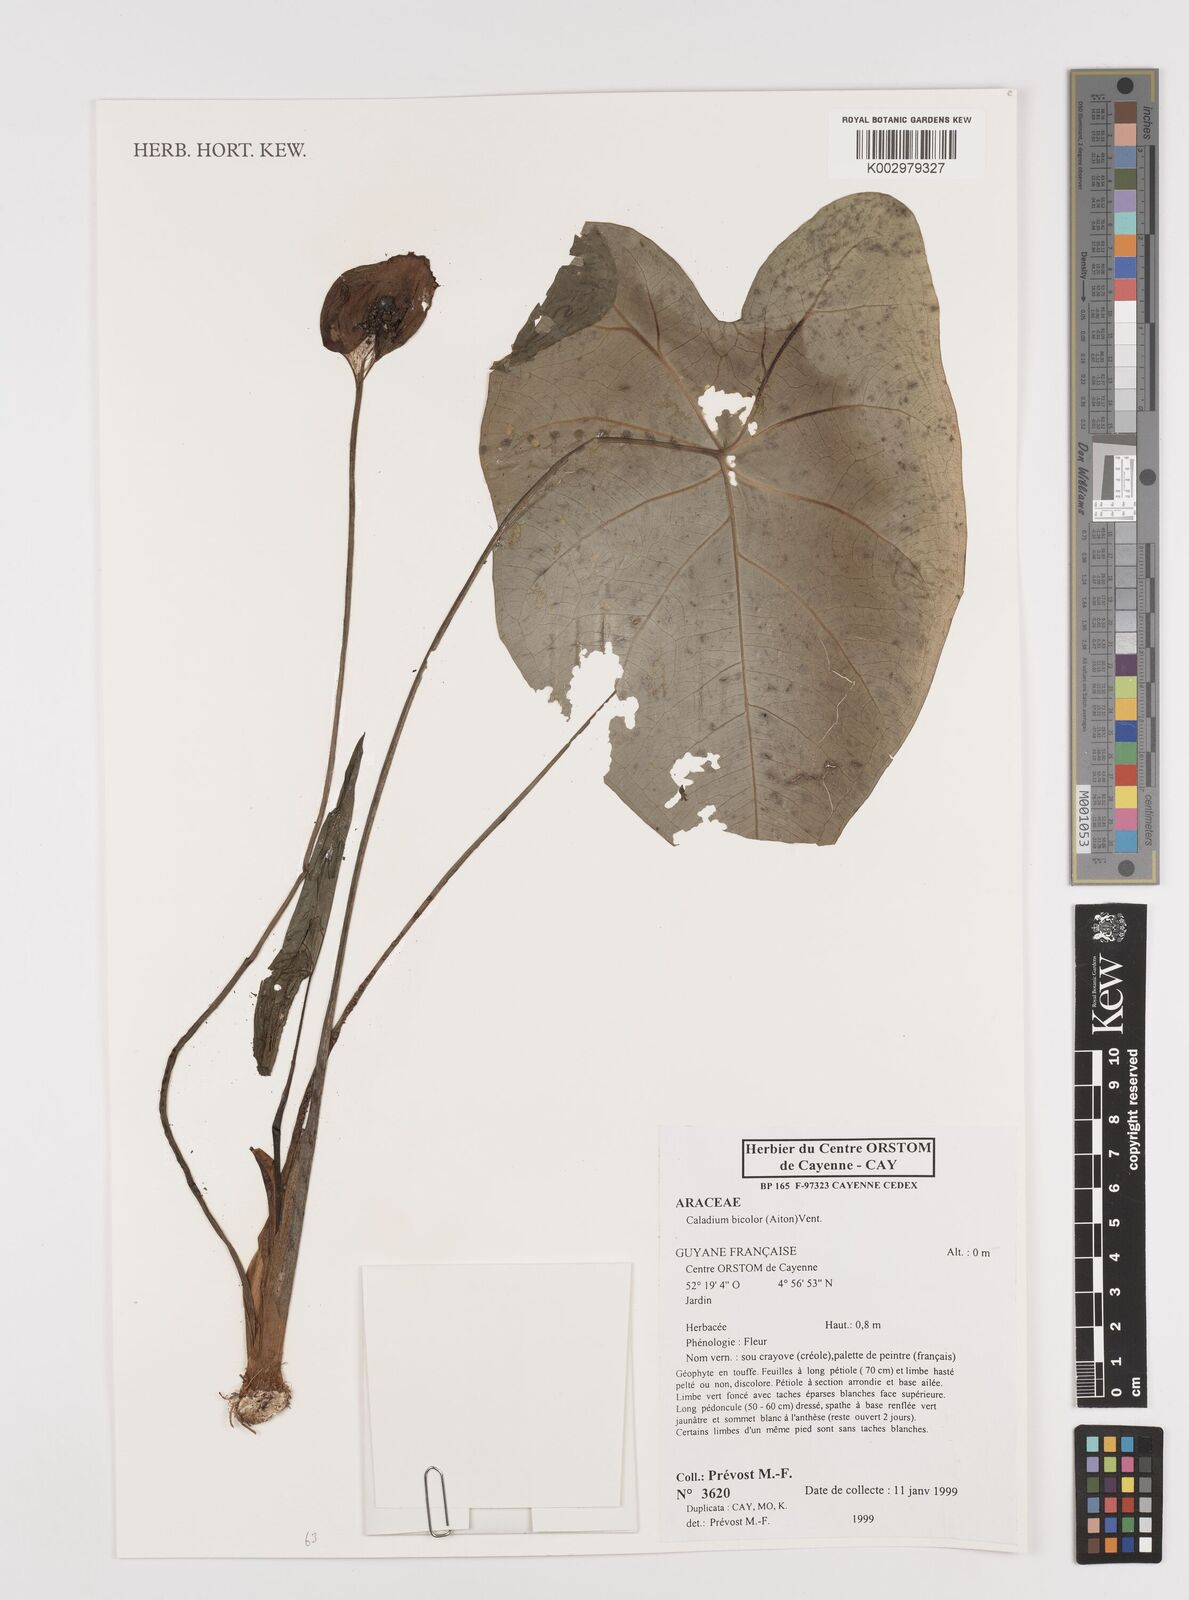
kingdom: Plantae
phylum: Tracheophyta
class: Liliopsida
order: Alismatales
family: Araceae
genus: Caladium
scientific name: Caladium bicolor
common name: Artist's pallet
